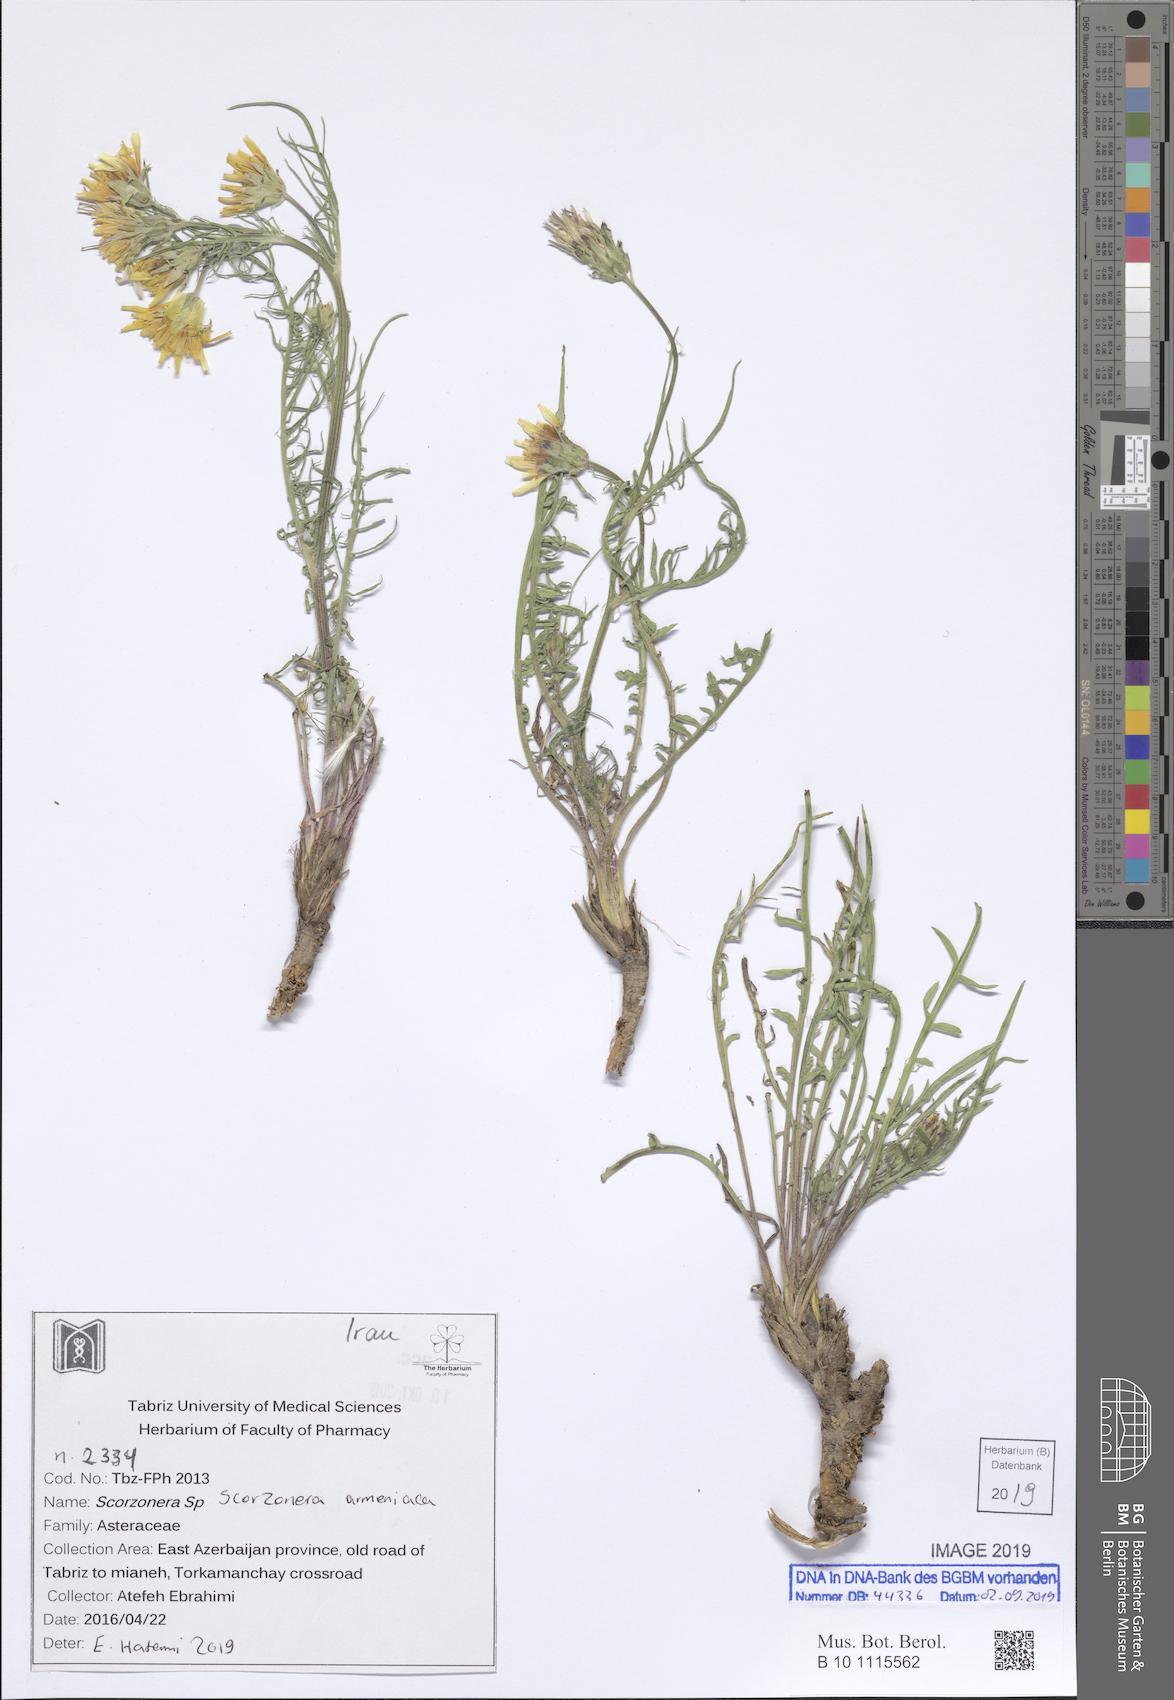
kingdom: Plantae
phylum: Tracheophyta
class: Magnoliopsida
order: Asterales
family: Asteraceae
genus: Pseudopodospermum
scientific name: Pseudopodospermum turkeviczii
